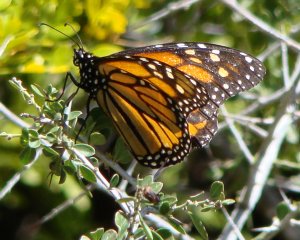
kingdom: Animalia
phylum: Arthropoda
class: Insecta
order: Lepidoptera
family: Nymphalidae
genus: Danaus
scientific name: Danaus plexippus
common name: Monarch
